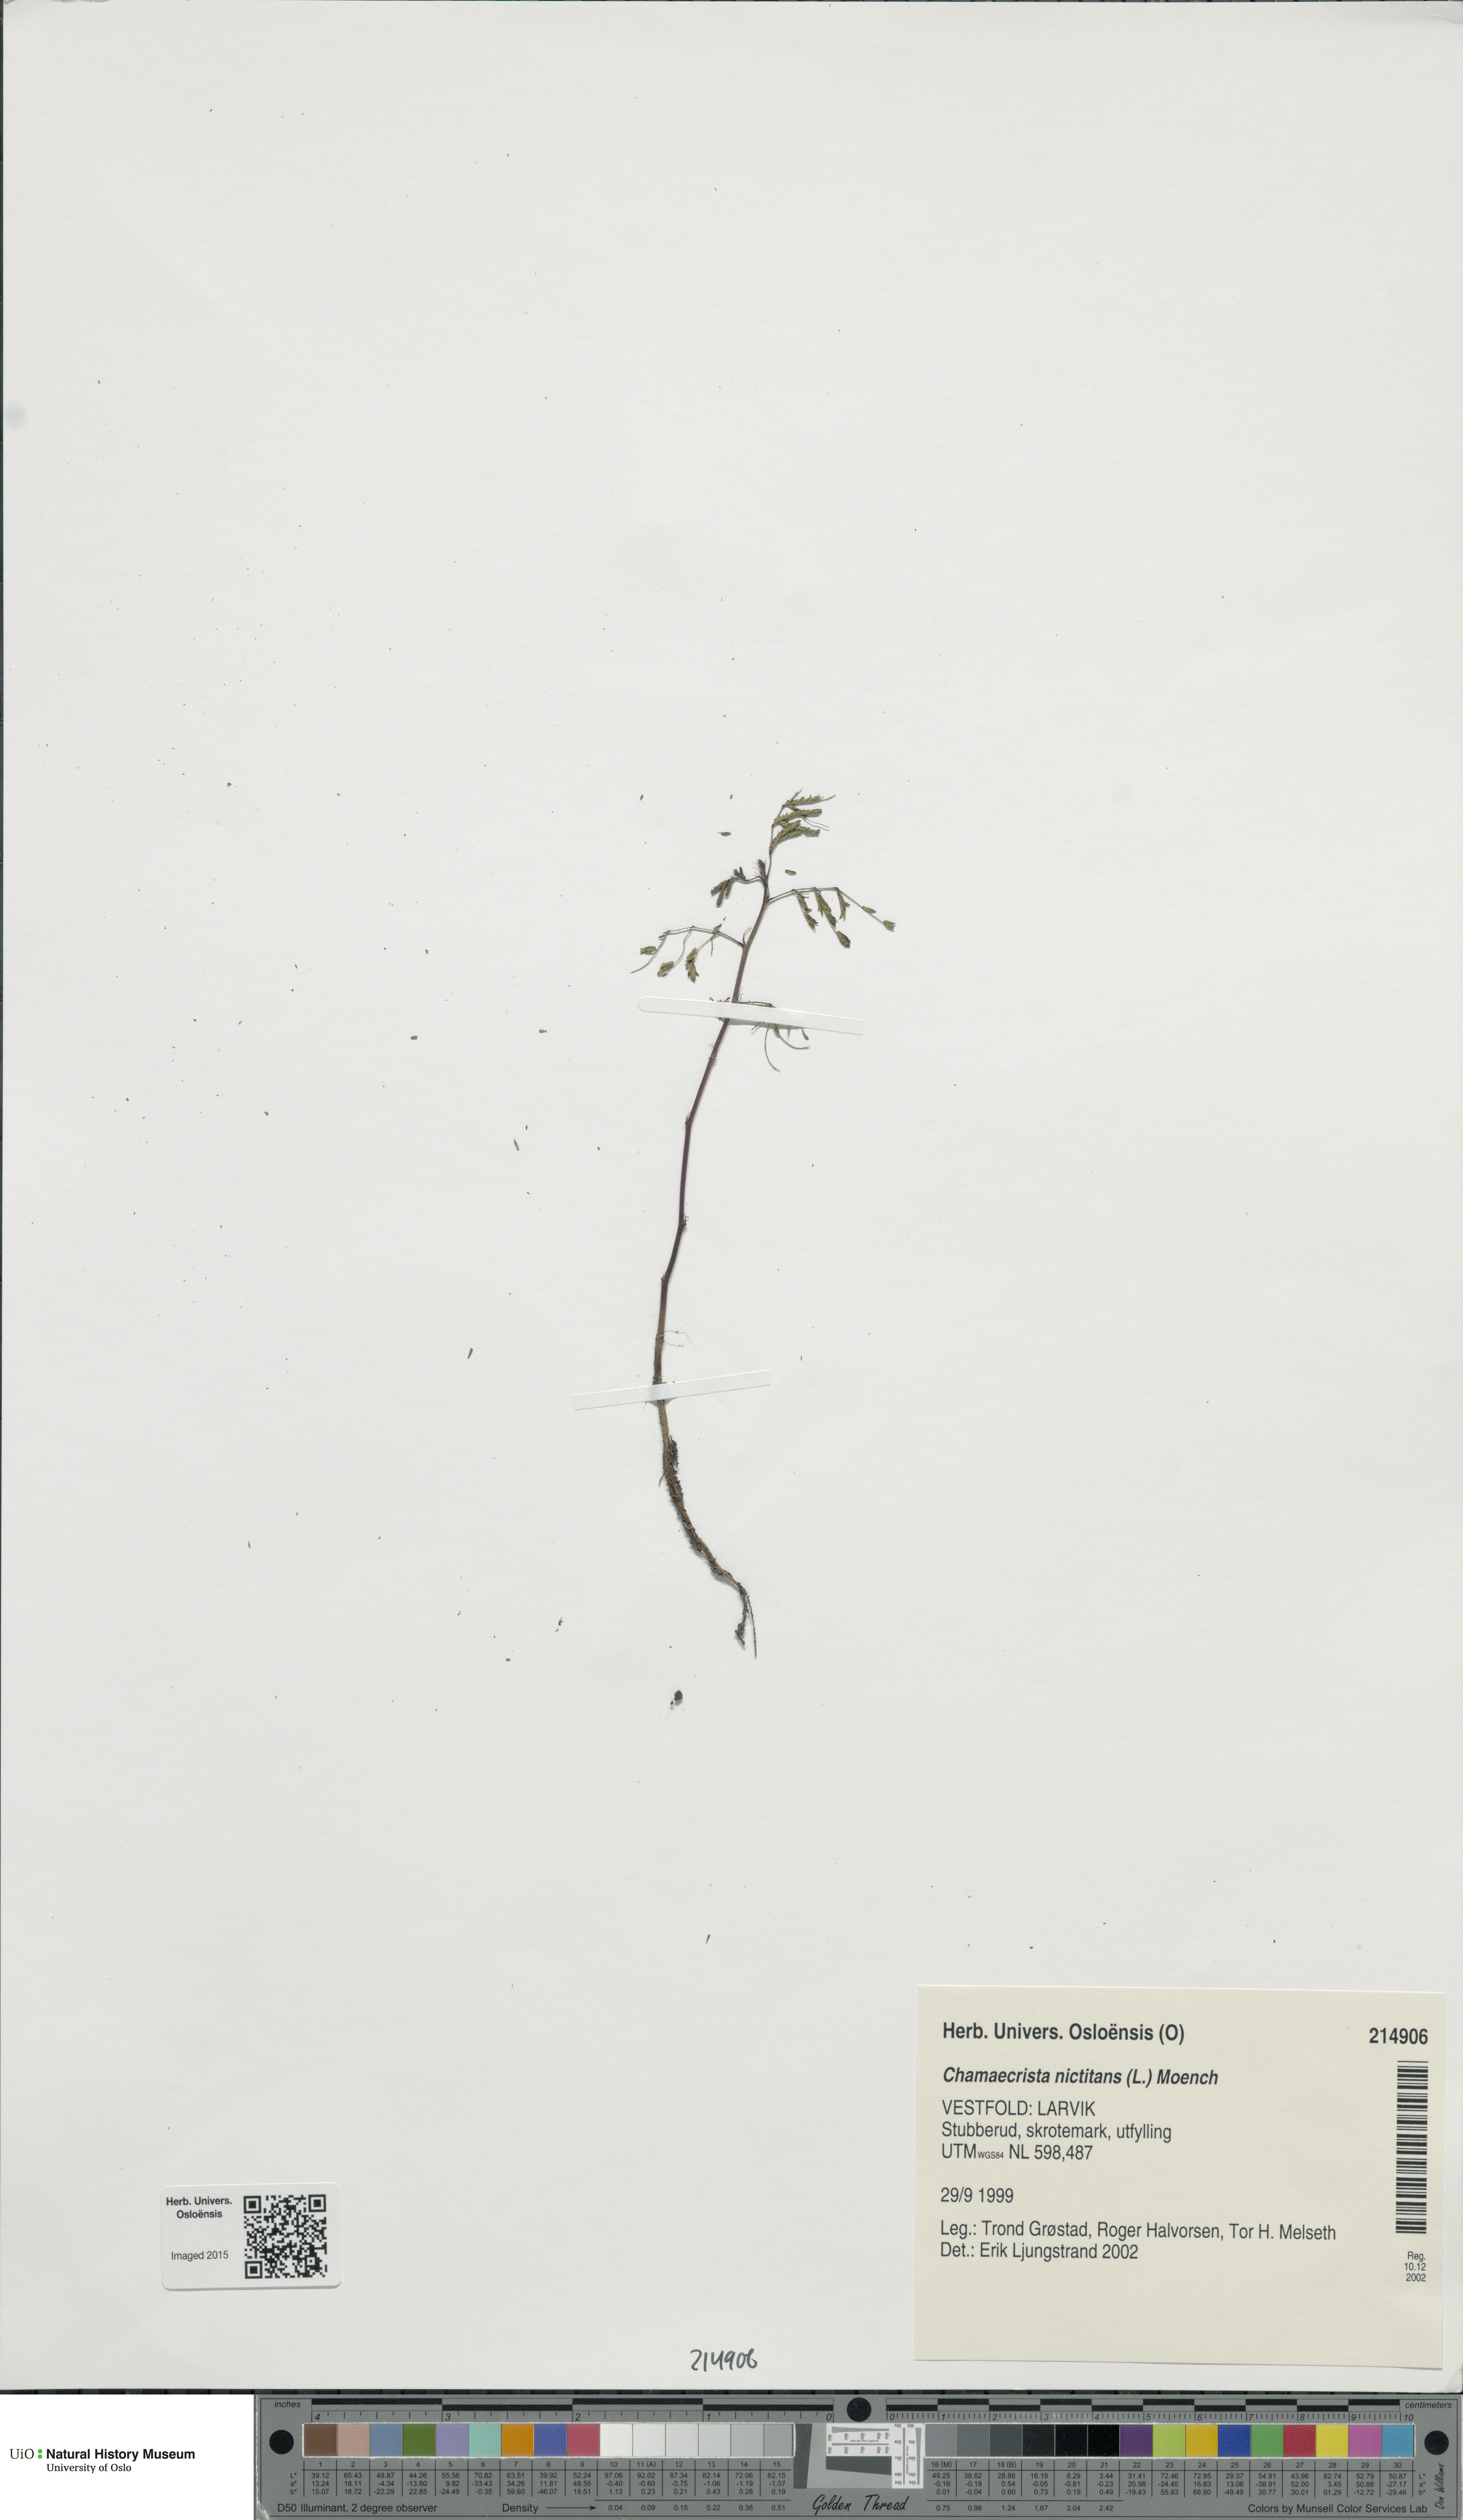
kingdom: Plantae
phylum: Tracheophyta
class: Magnoliopsida
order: Fabales
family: Fabaceae
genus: Chamaecrista
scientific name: Chamaecrista nictitans
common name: Sensitive cassia
